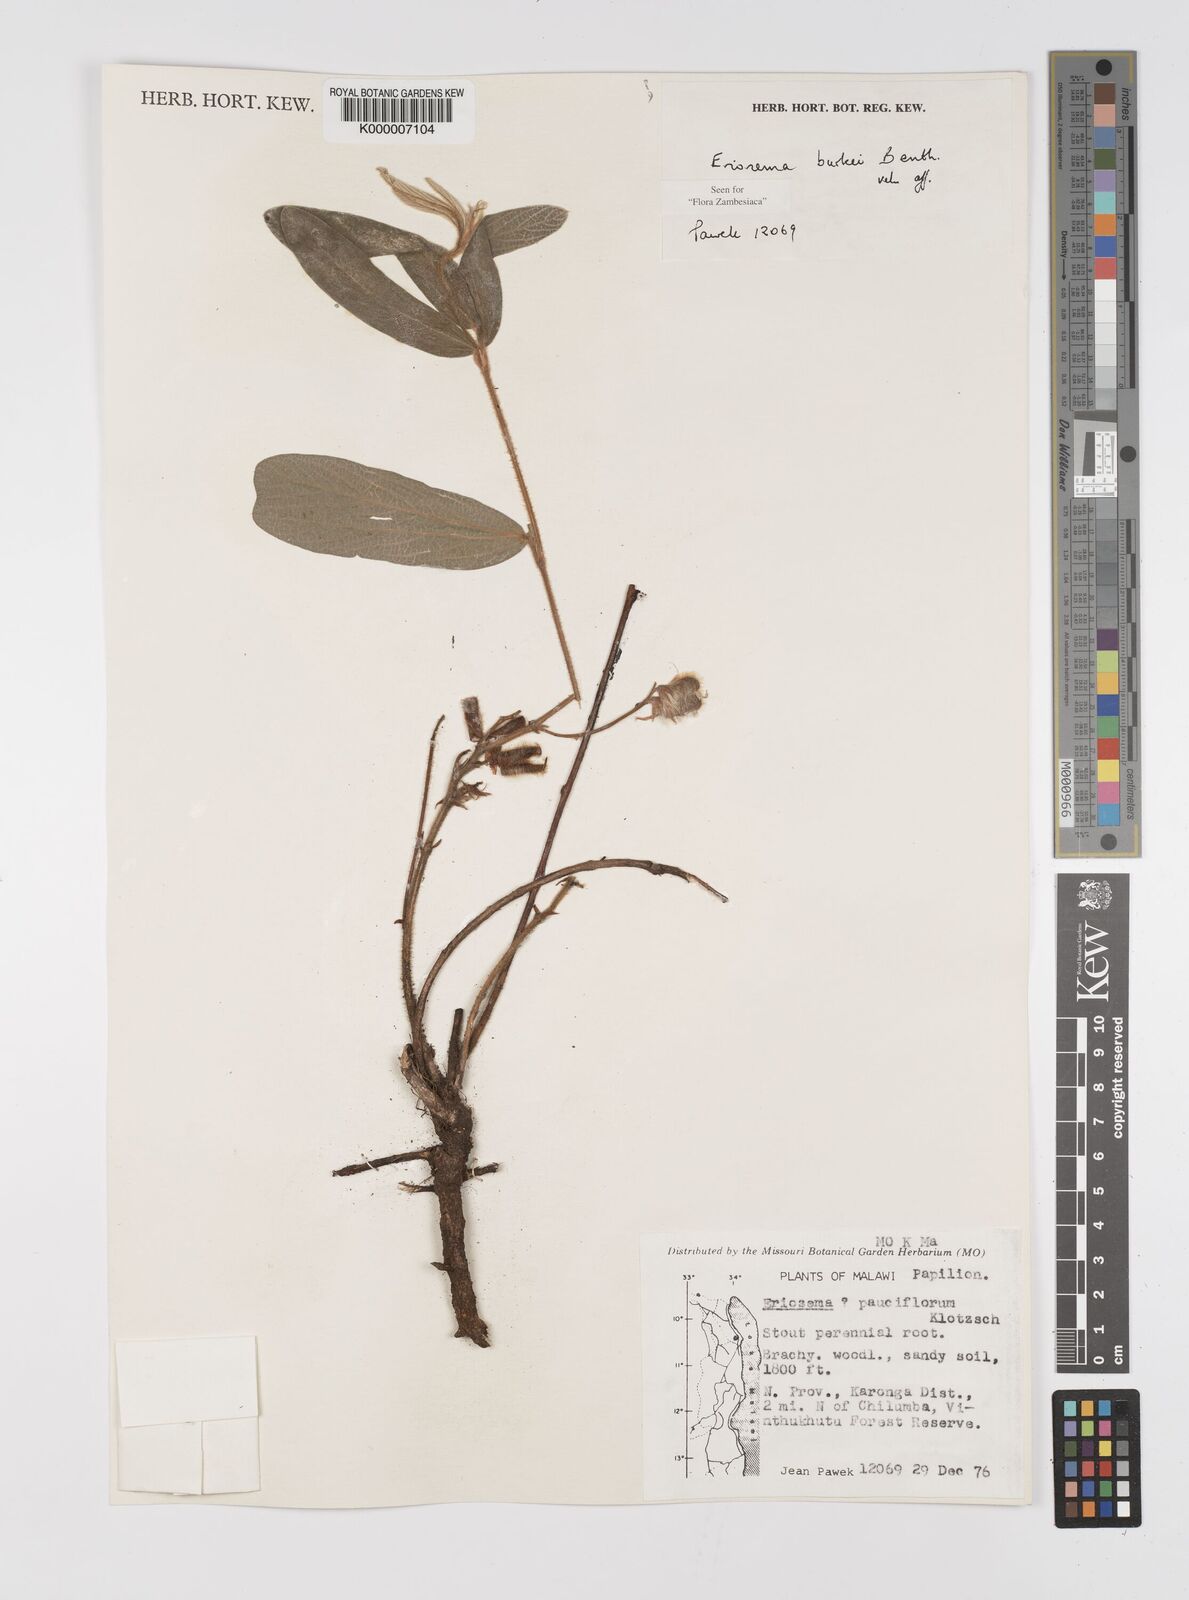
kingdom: Plantae
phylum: Tracheophyta
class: Magnoliopsida
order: Fabales
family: Fabaceae
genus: Eriosema
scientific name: Eriosema burkei
